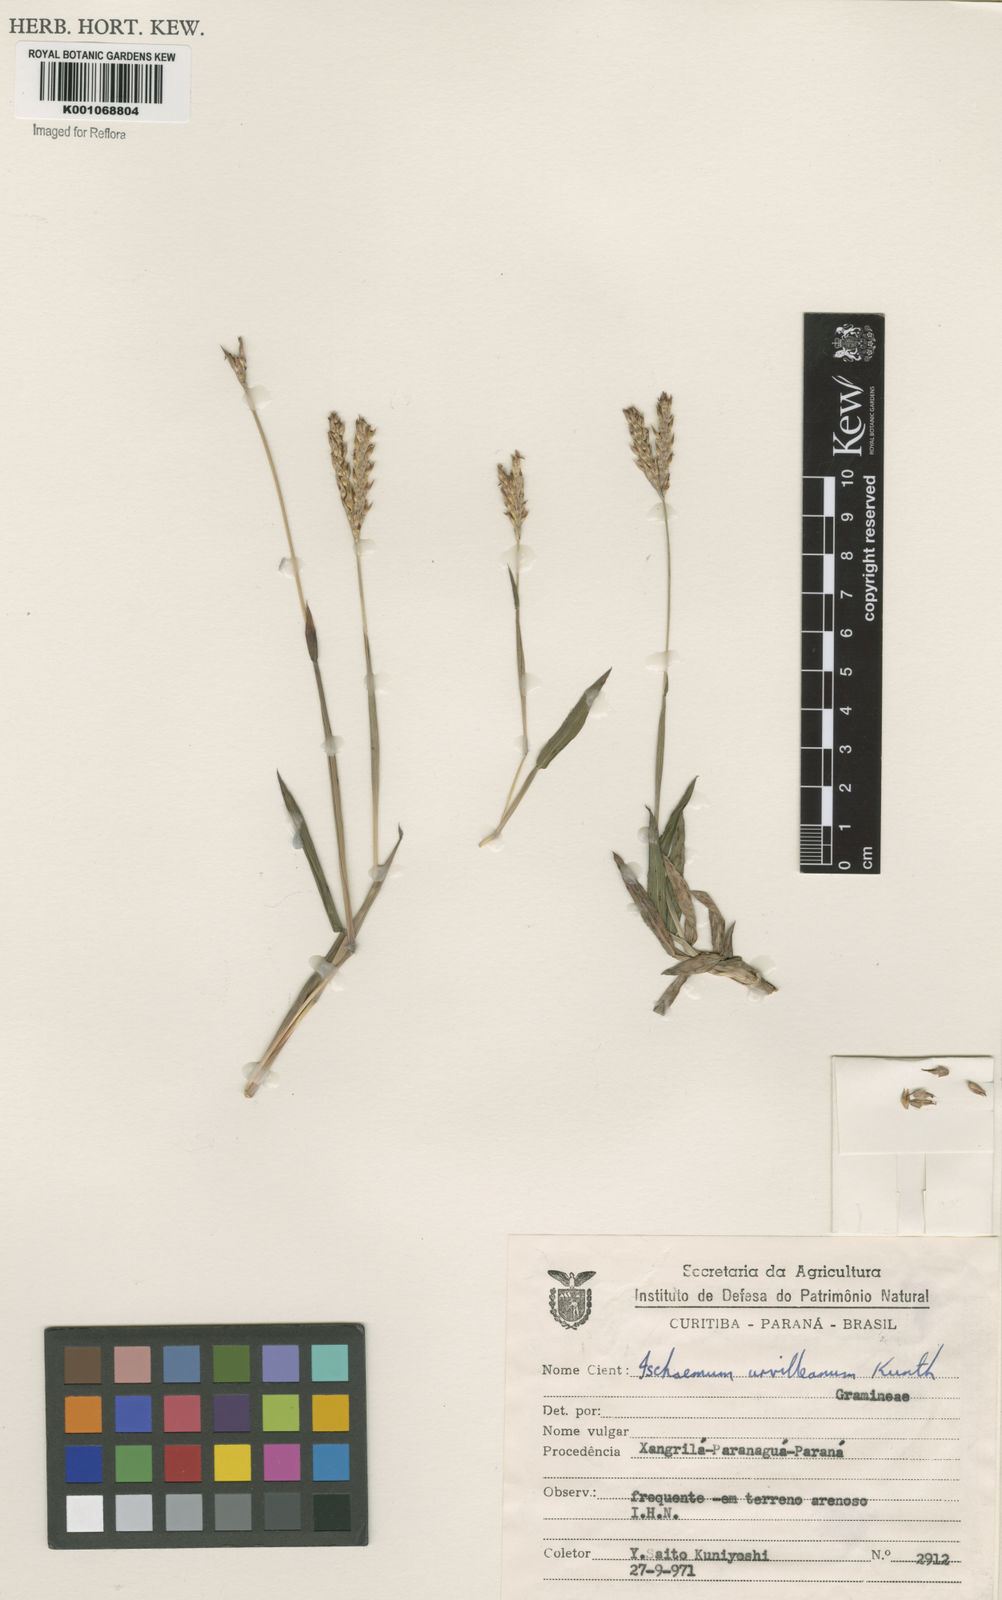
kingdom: Plantae
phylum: Tracheophyta
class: Liliopsida
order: Poales
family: Poaceae
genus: Ischaemum
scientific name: Ischaemum minus
